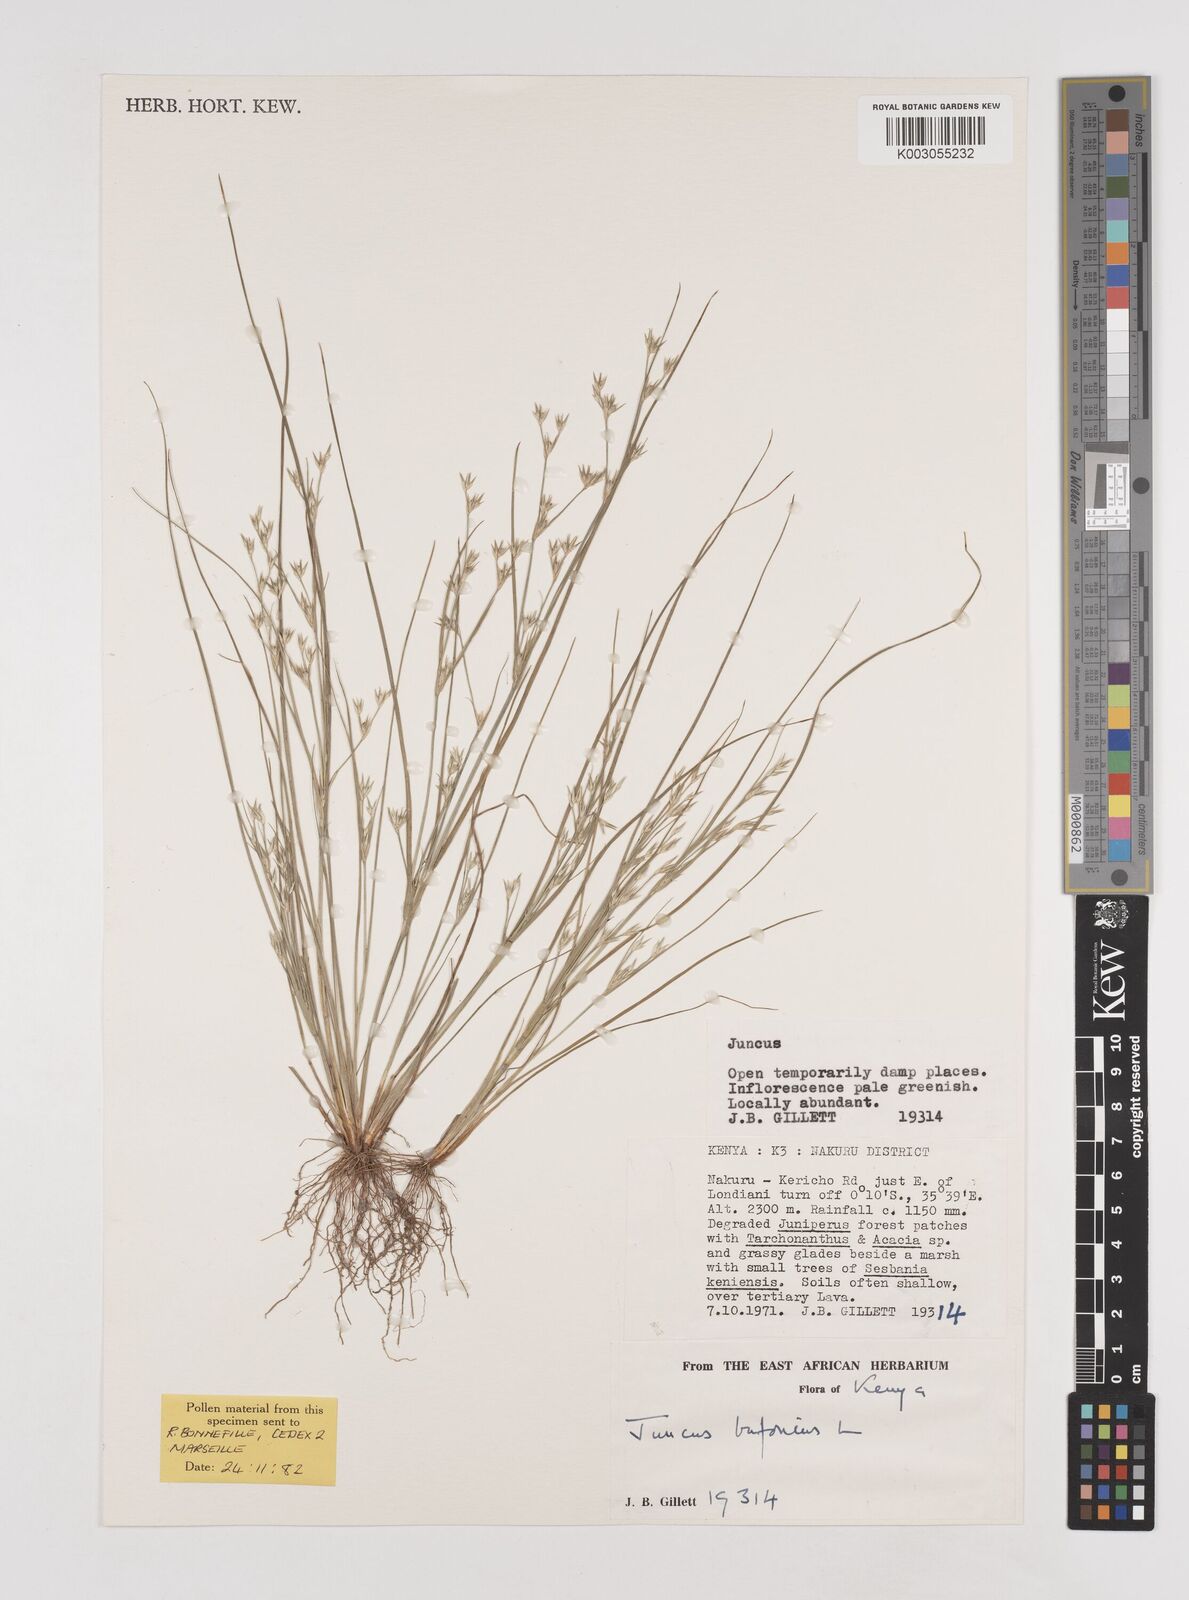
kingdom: Plantae
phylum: Tracheophyta
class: Liliopsida
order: Poales
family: Juncaceae
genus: Juncus
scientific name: Juncus bufonius
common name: Toad rush
